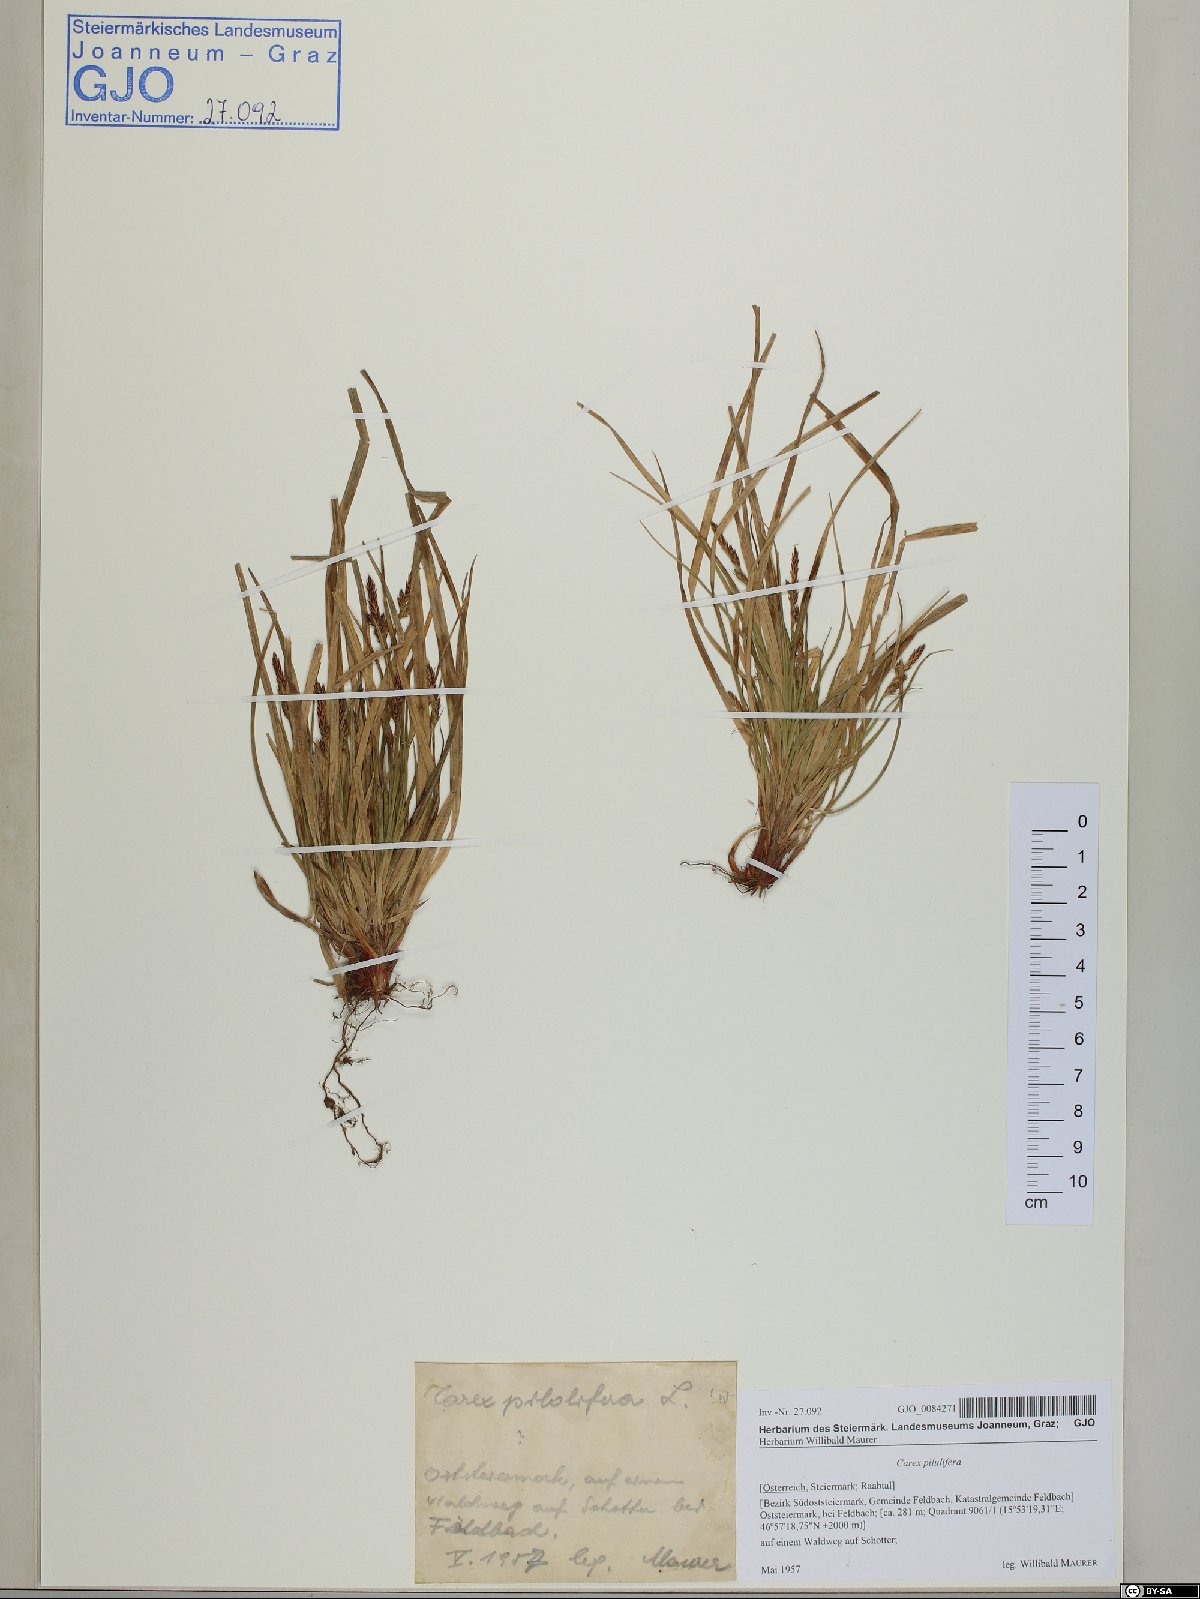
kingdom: Plantae
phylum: Tracheophyta
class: Liliopsida
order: Poales
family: Cyperaceae
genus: Carex
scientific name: Carex pilulifera
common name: Pill sedge
